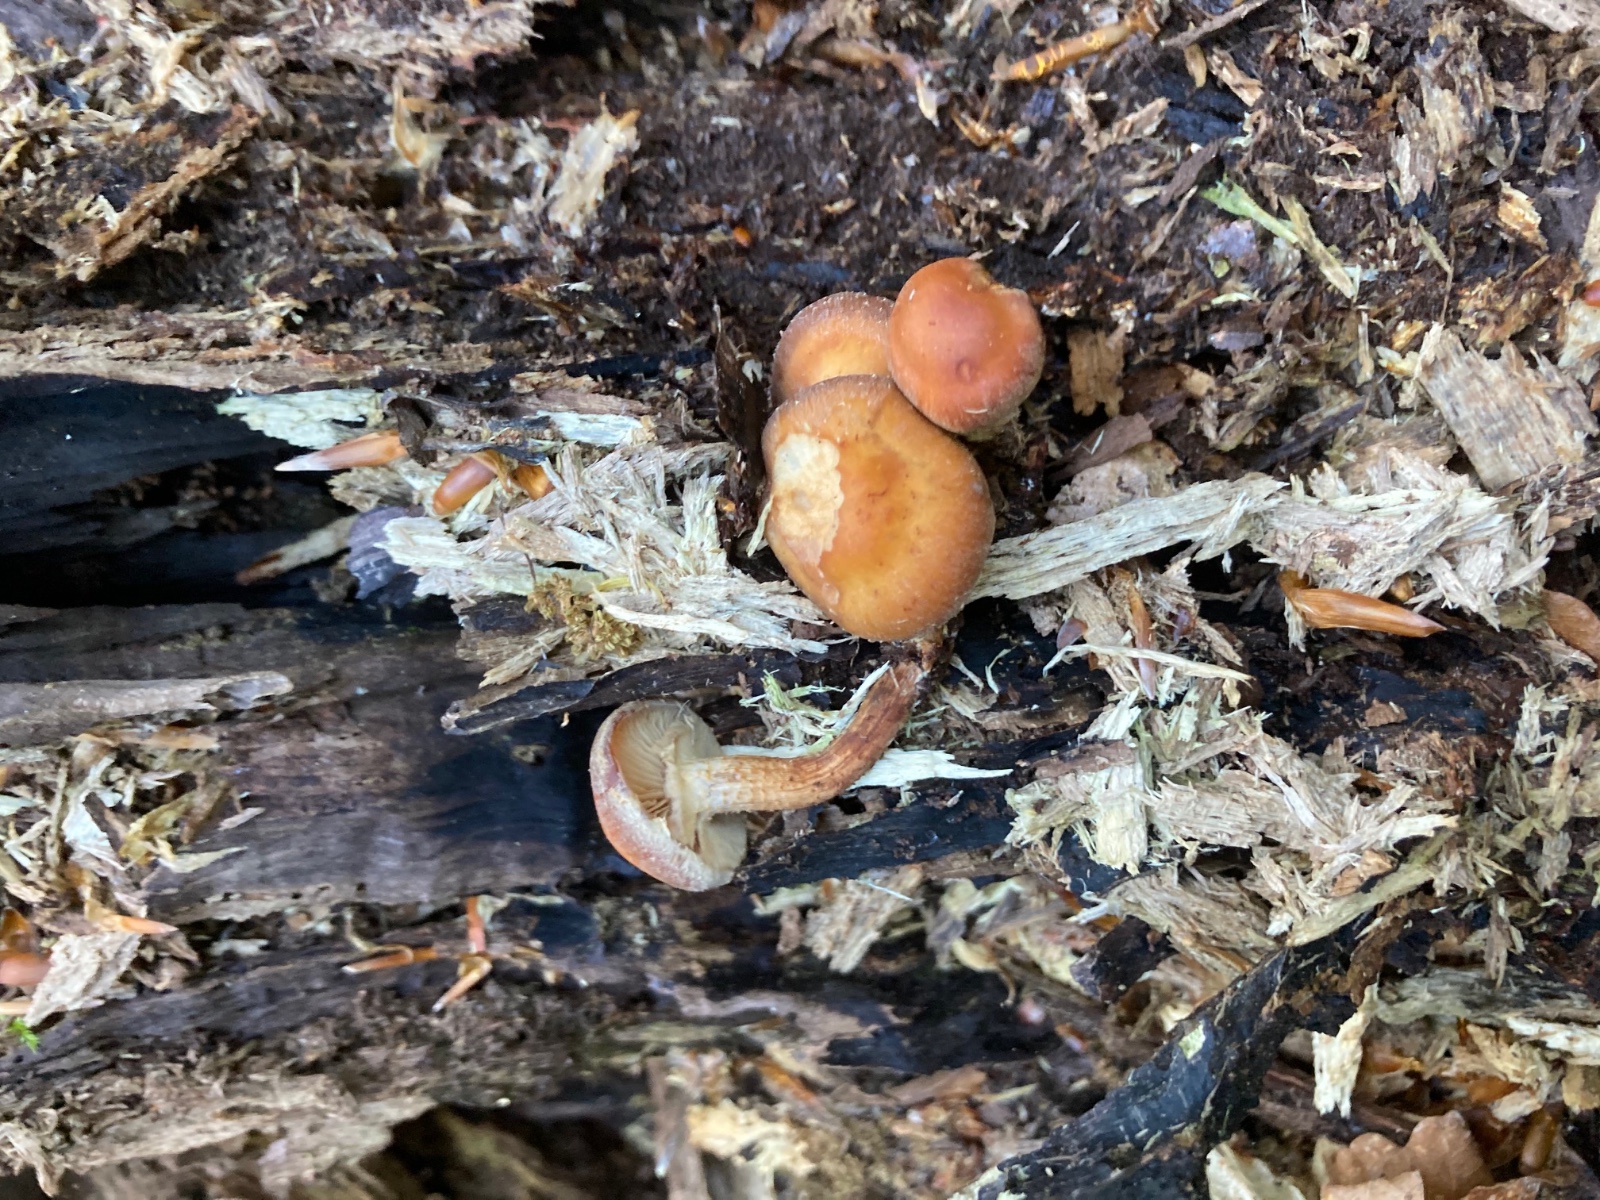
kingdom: Fungi
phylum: Basidiomycota
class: Agaricomycetes
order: Agaricales
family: Strophariaceae
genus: Kuehneromyces
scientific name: Kuehneromyces mutabilis
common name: foranderlig skælhat
